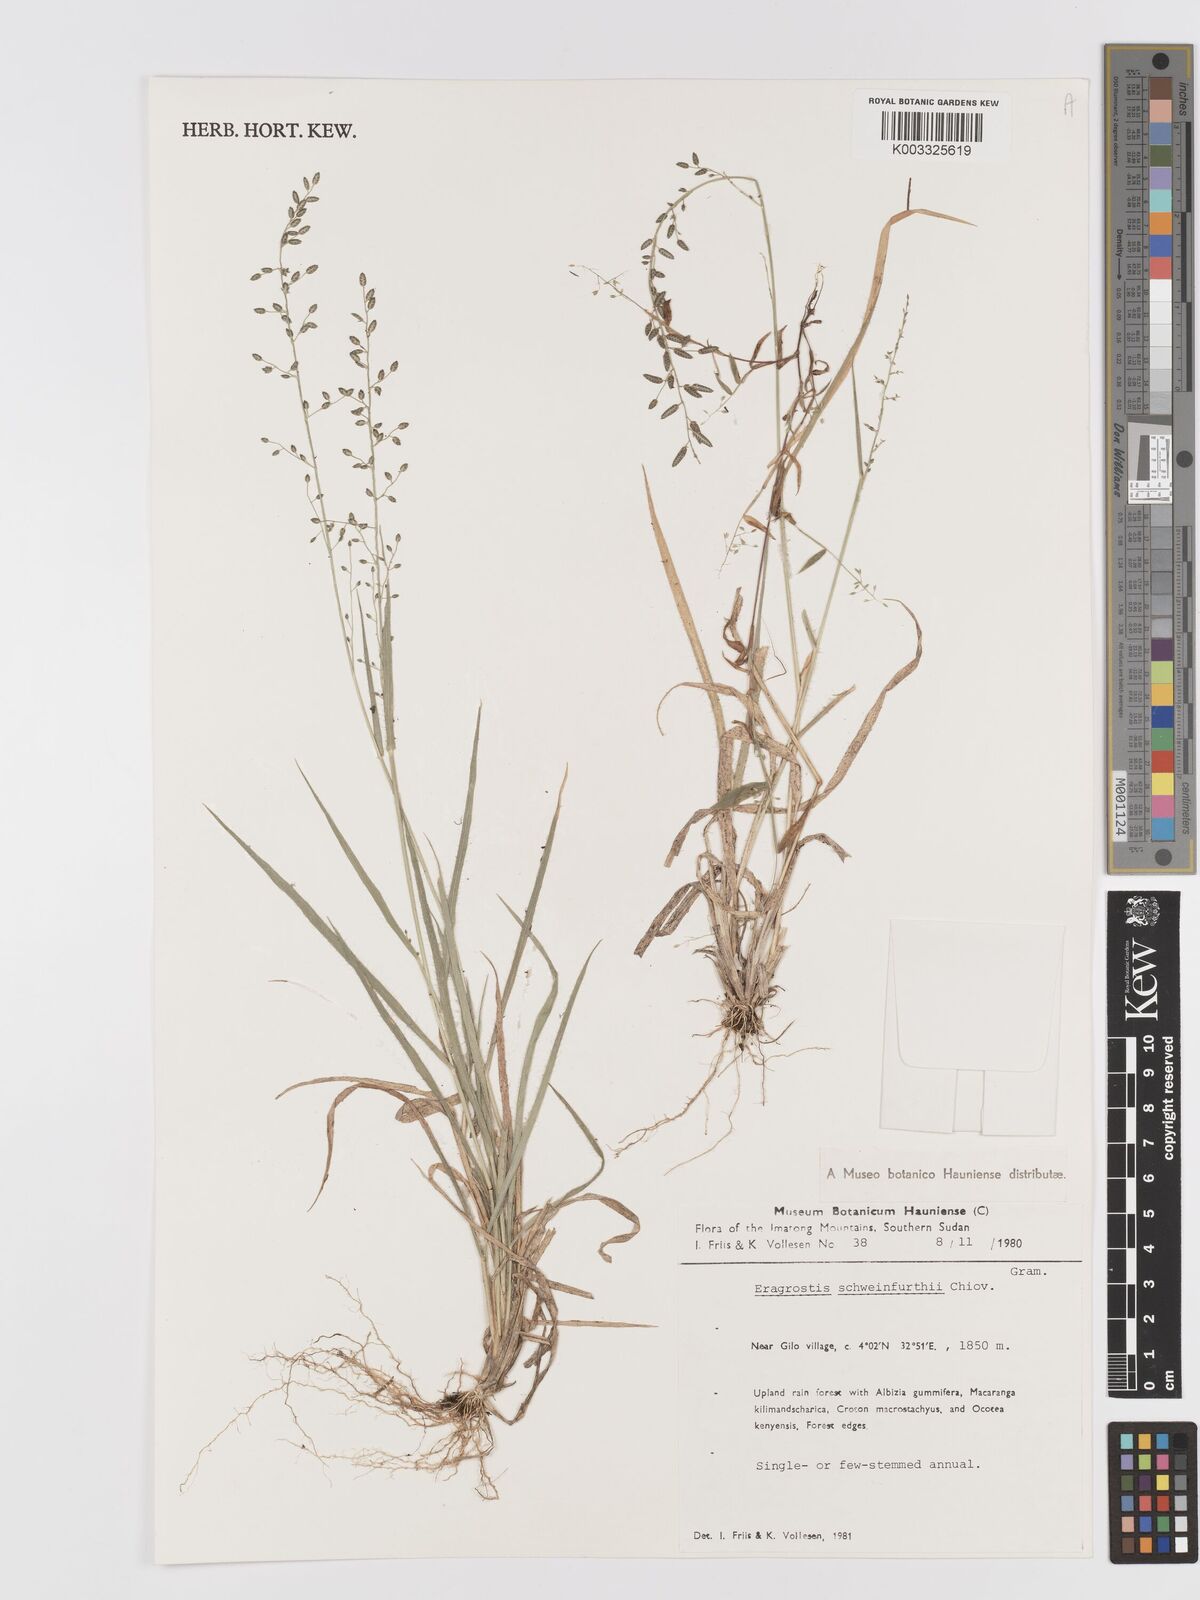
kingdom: Plantae
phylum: Tracheophyta
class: Liliopsida
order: Poales
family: Poaceae
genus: Eragrostis
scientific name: Eragrostis schweinfurthii
